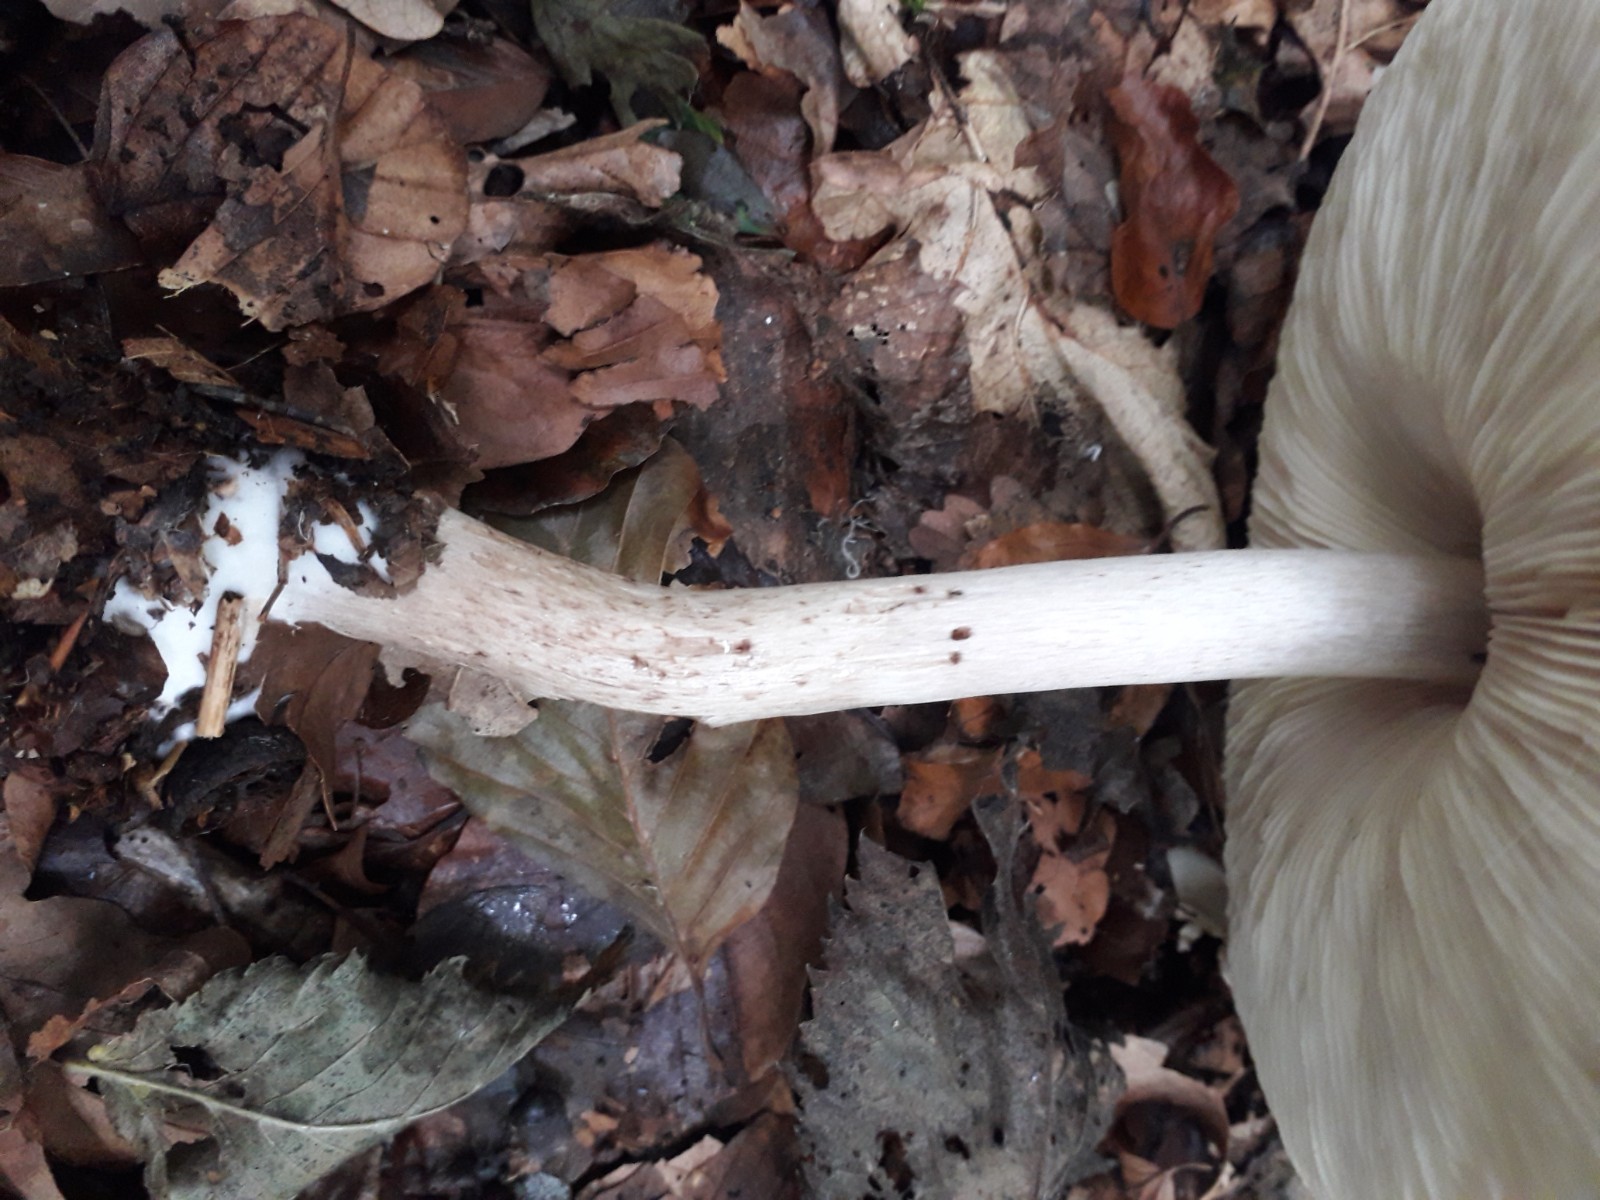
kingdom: Fungi
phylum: Basidiomycota
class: Agaricomycetes
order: Agaricales
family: Agaricaceae
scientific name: Agaricaceae
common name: champignonfamilien
